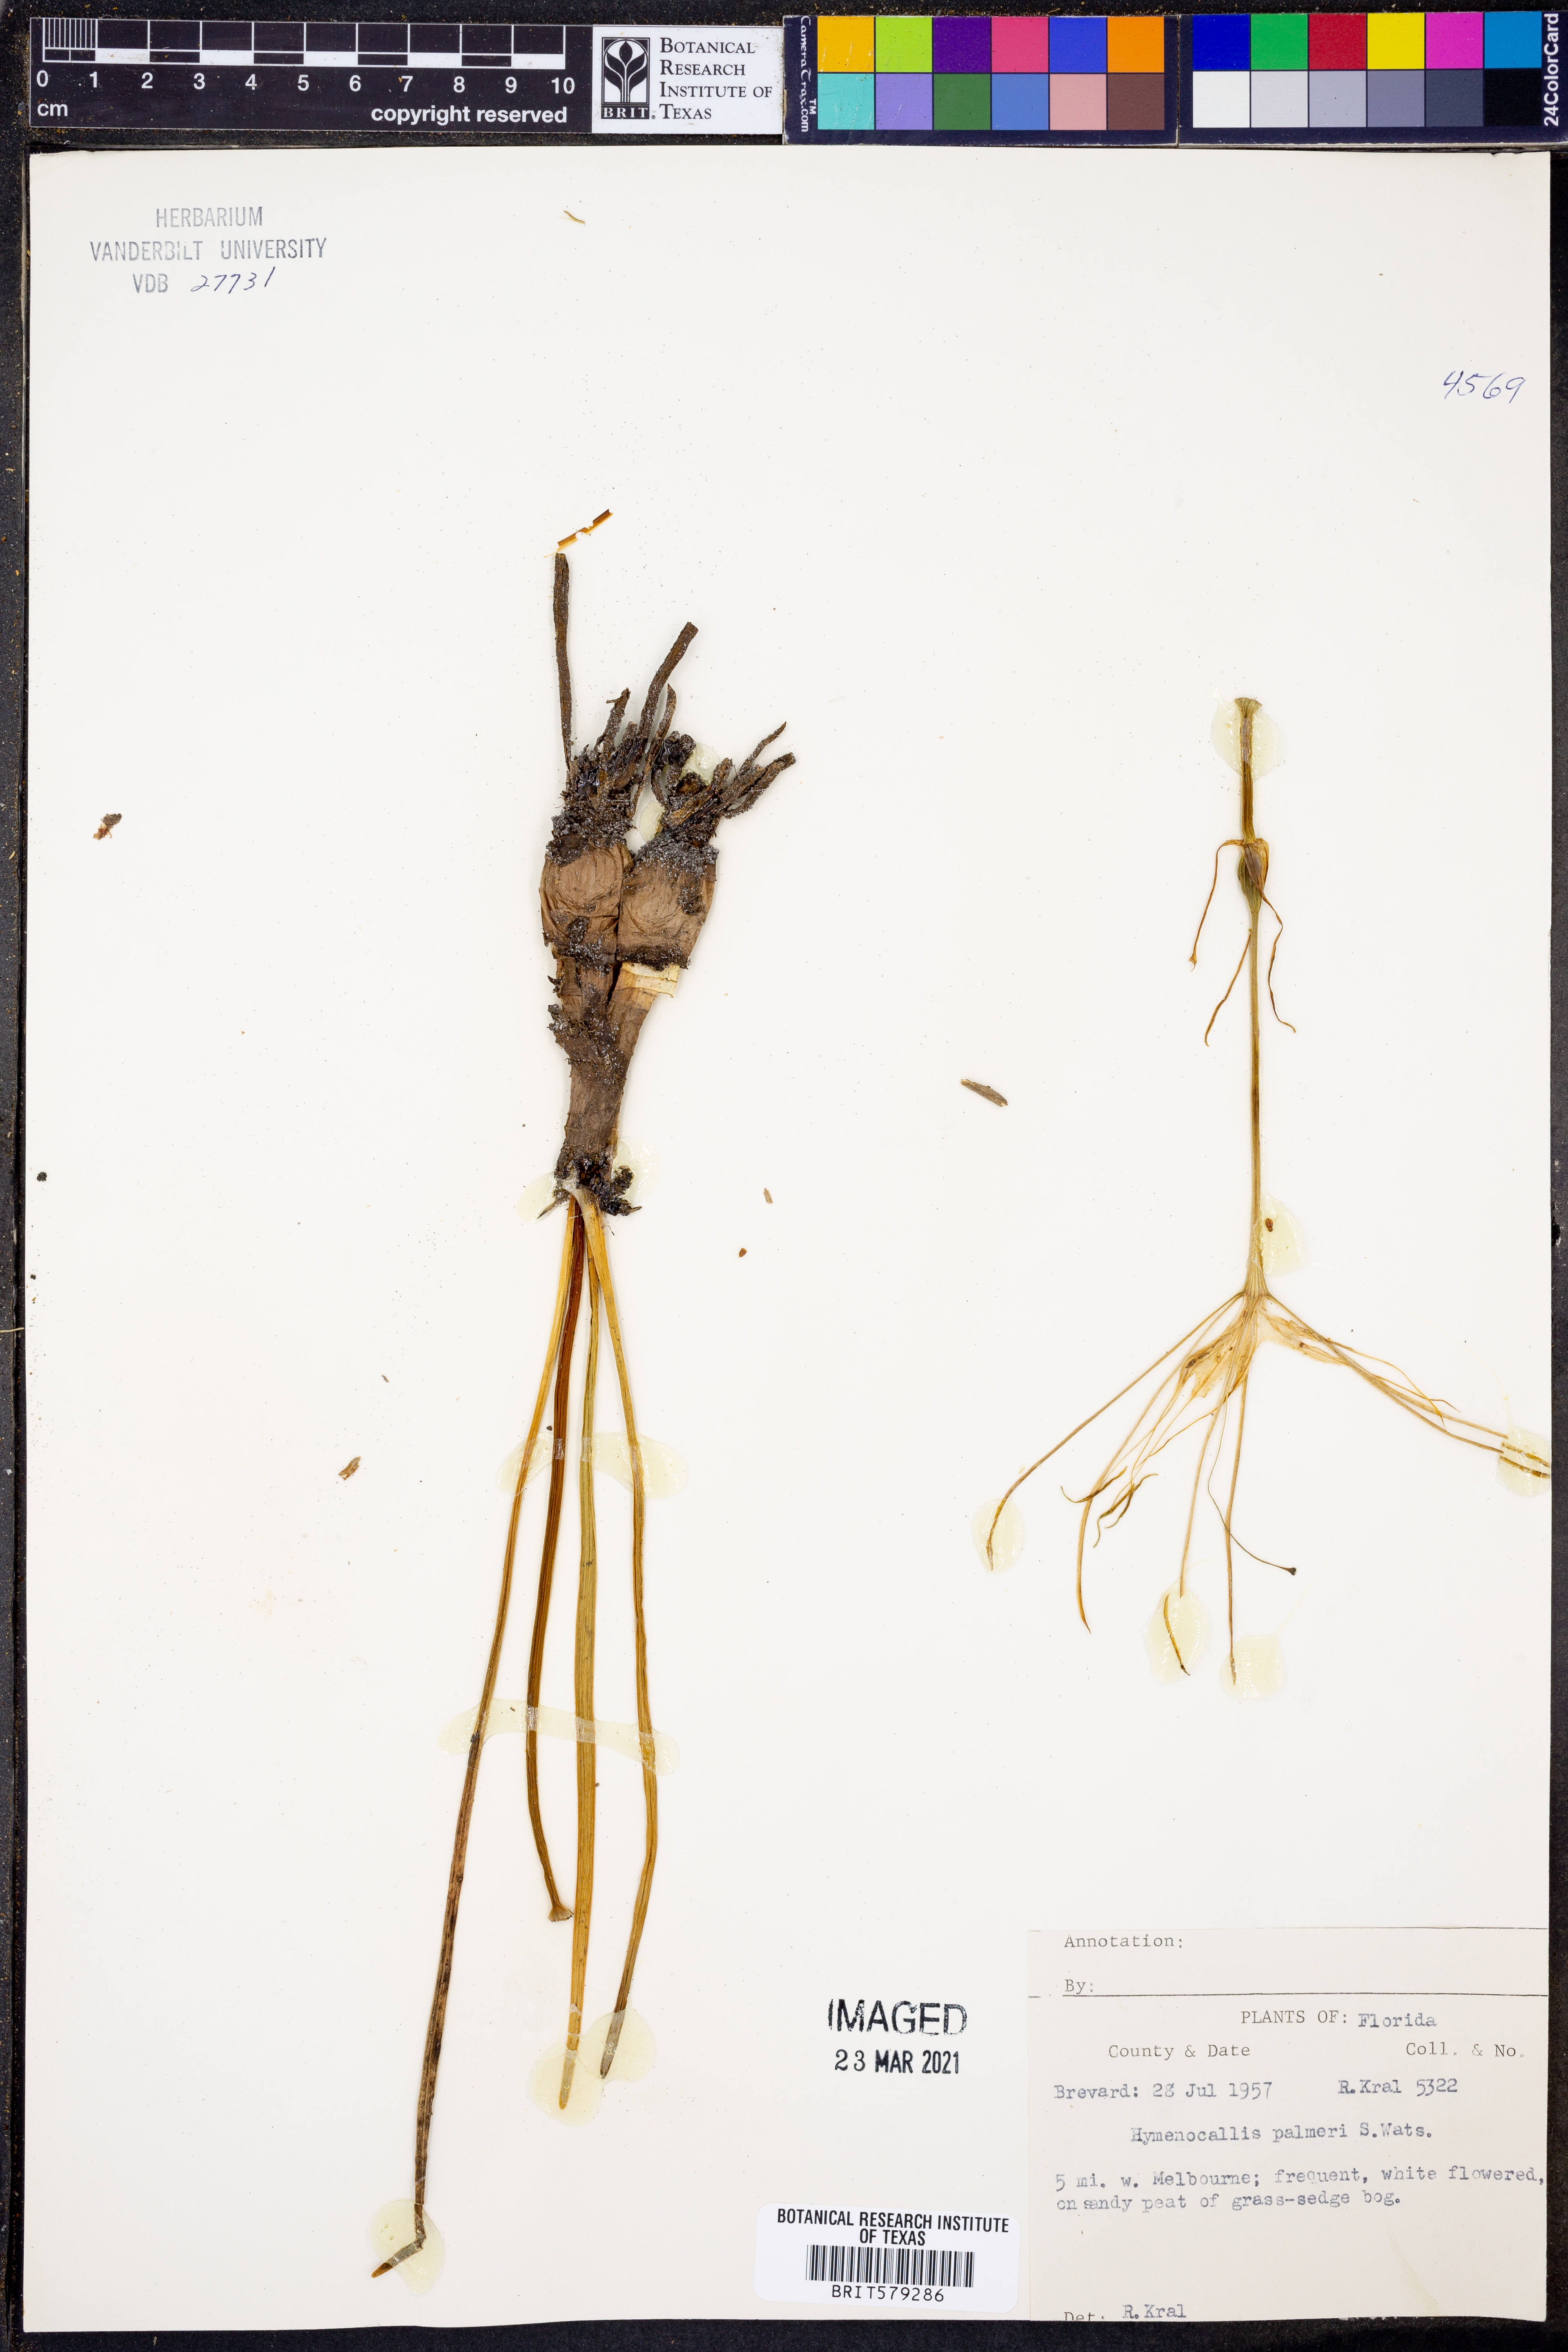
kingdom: Plantae
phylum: Tracheophyta
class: Liliopsida
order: Asparagales
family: Amaryllidaceae
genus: Hymenocallis
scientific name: Hymenocallis palmeri
